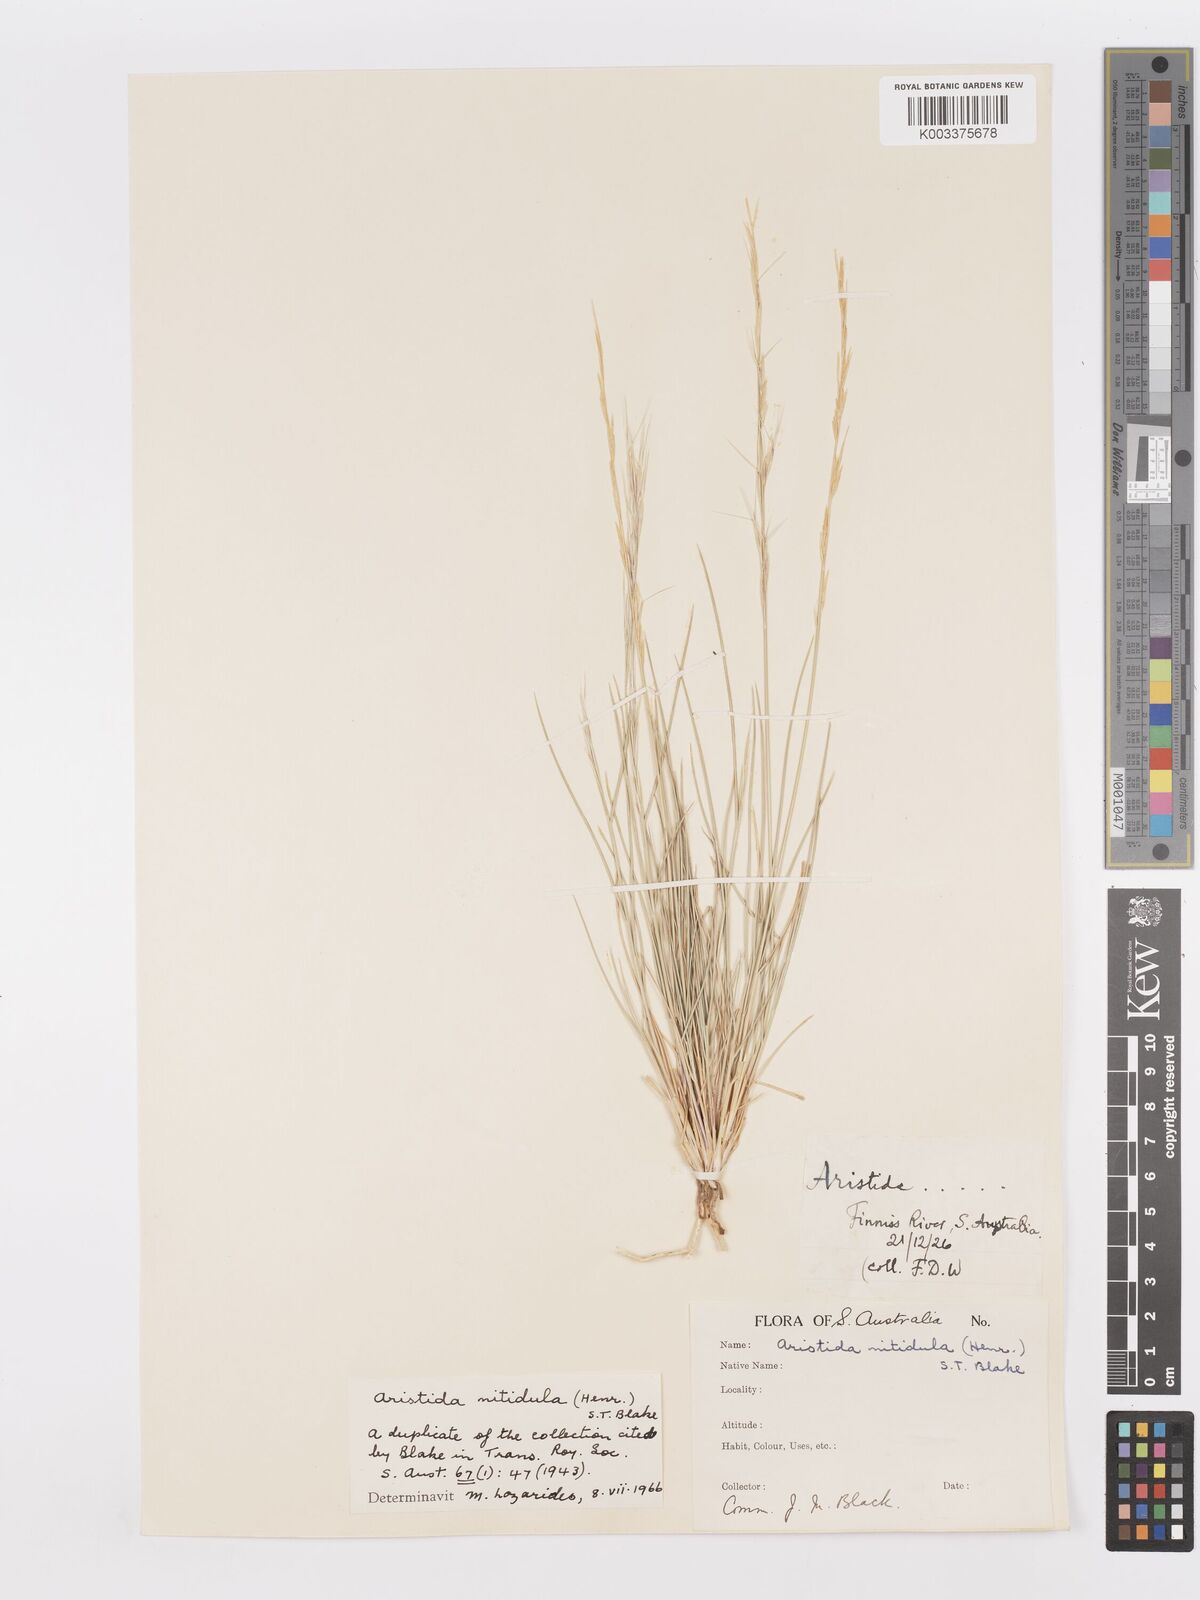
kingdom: Plantae
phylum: Tracheophyta
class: Liliopsida
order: Poales
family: Poaceae
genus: Aristida
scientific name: Aristida nitidula
